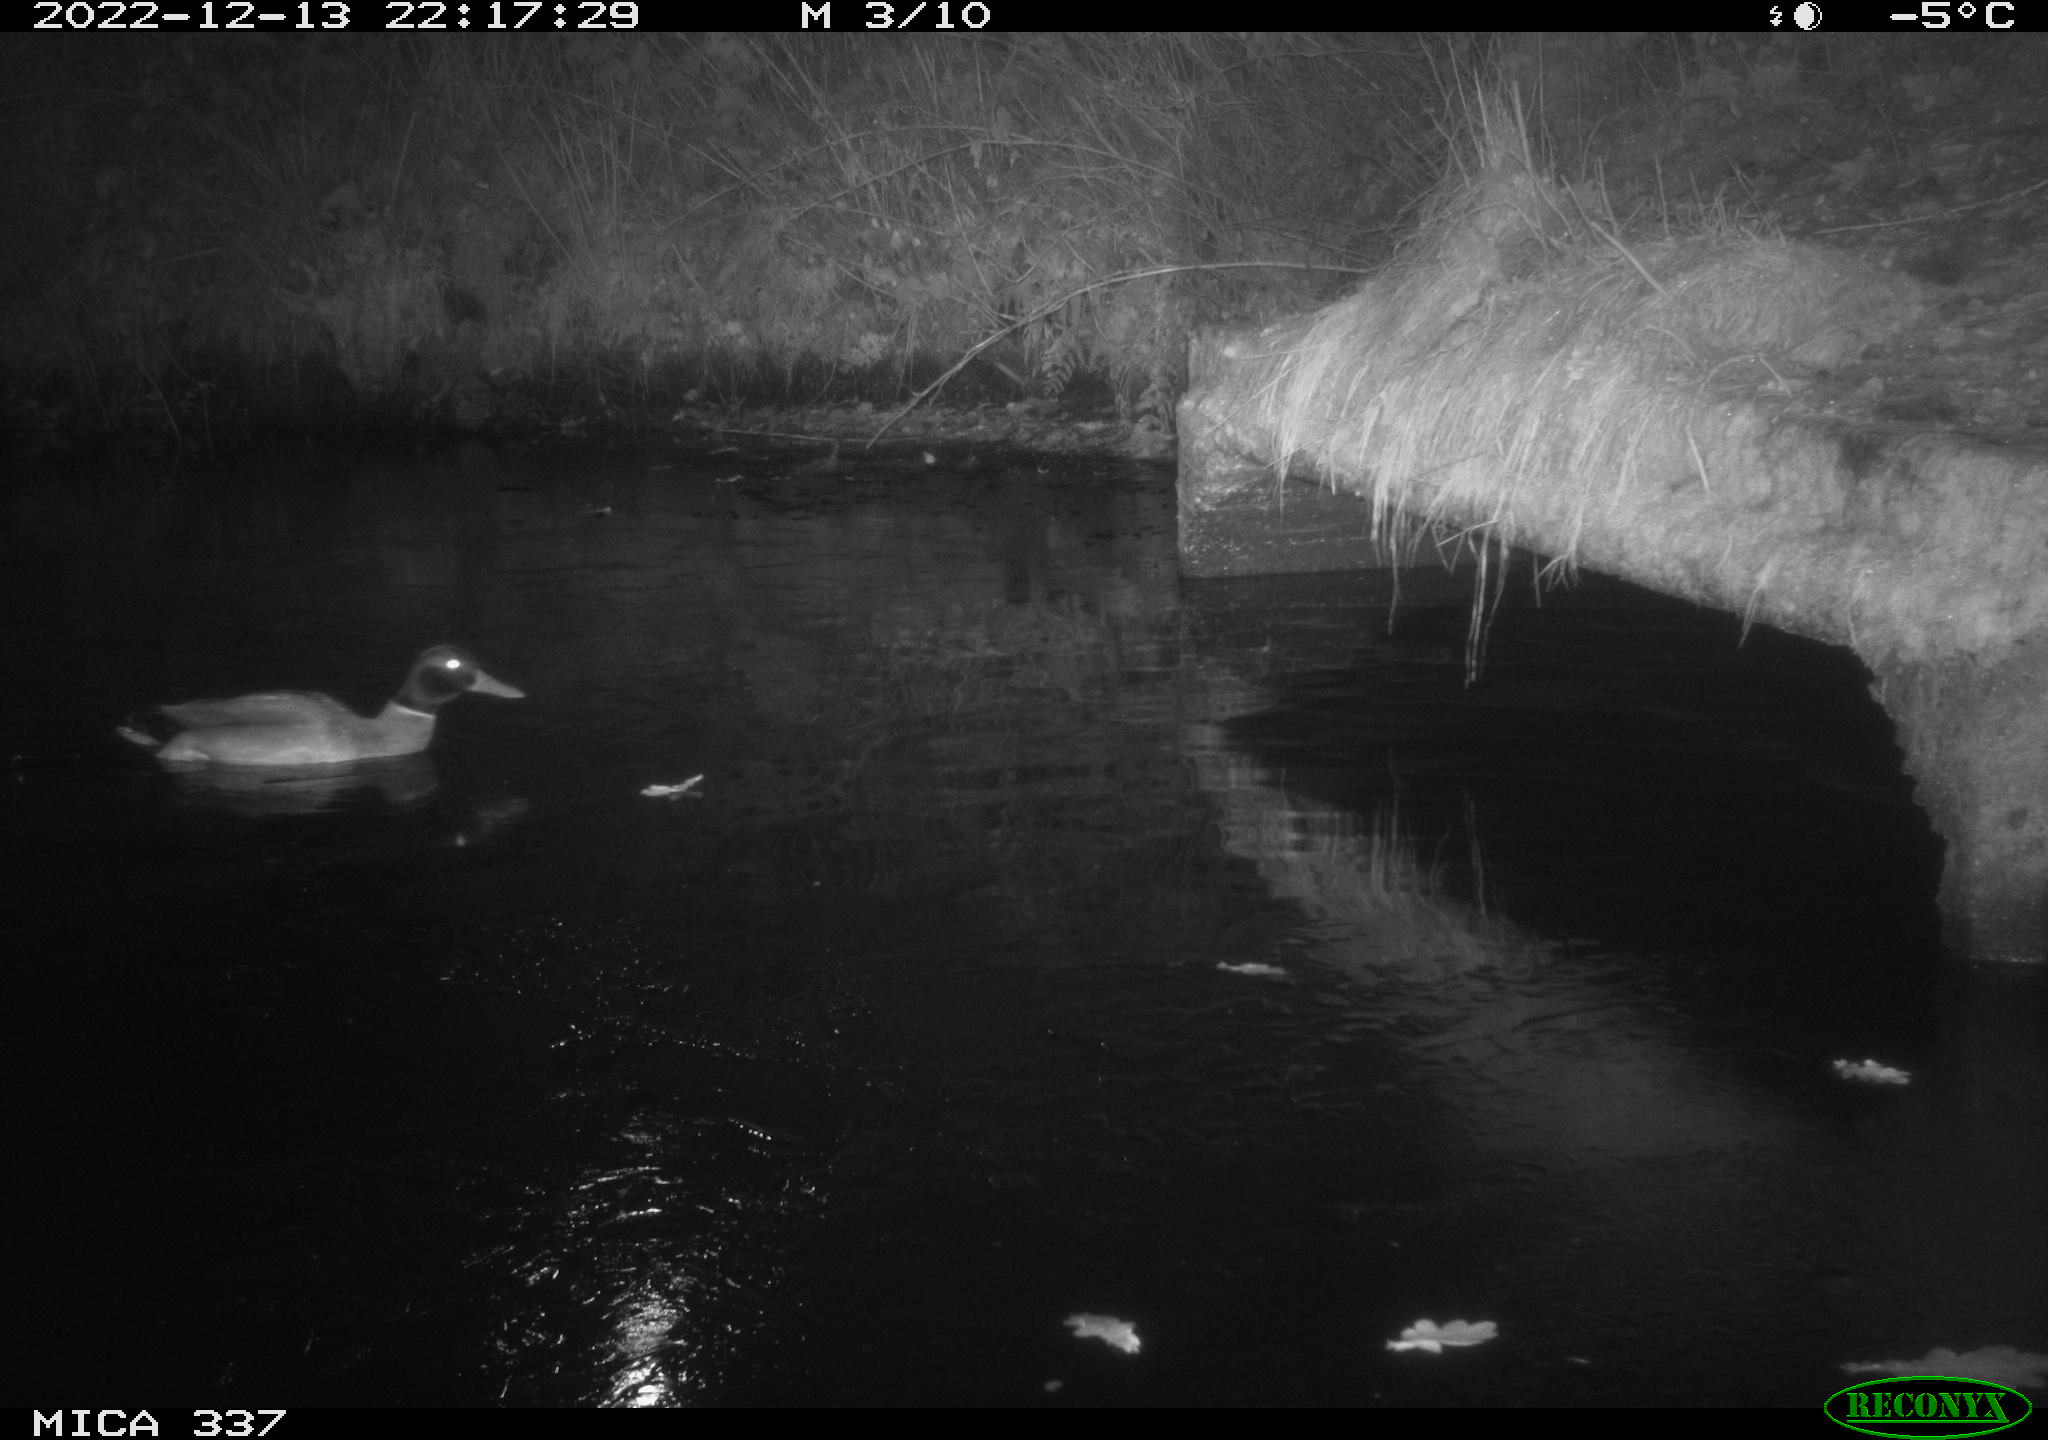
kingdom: Animalia
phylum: Chordata
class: Aves
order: Anseriformes
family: Anatidae
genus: Anas
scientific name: Anas
